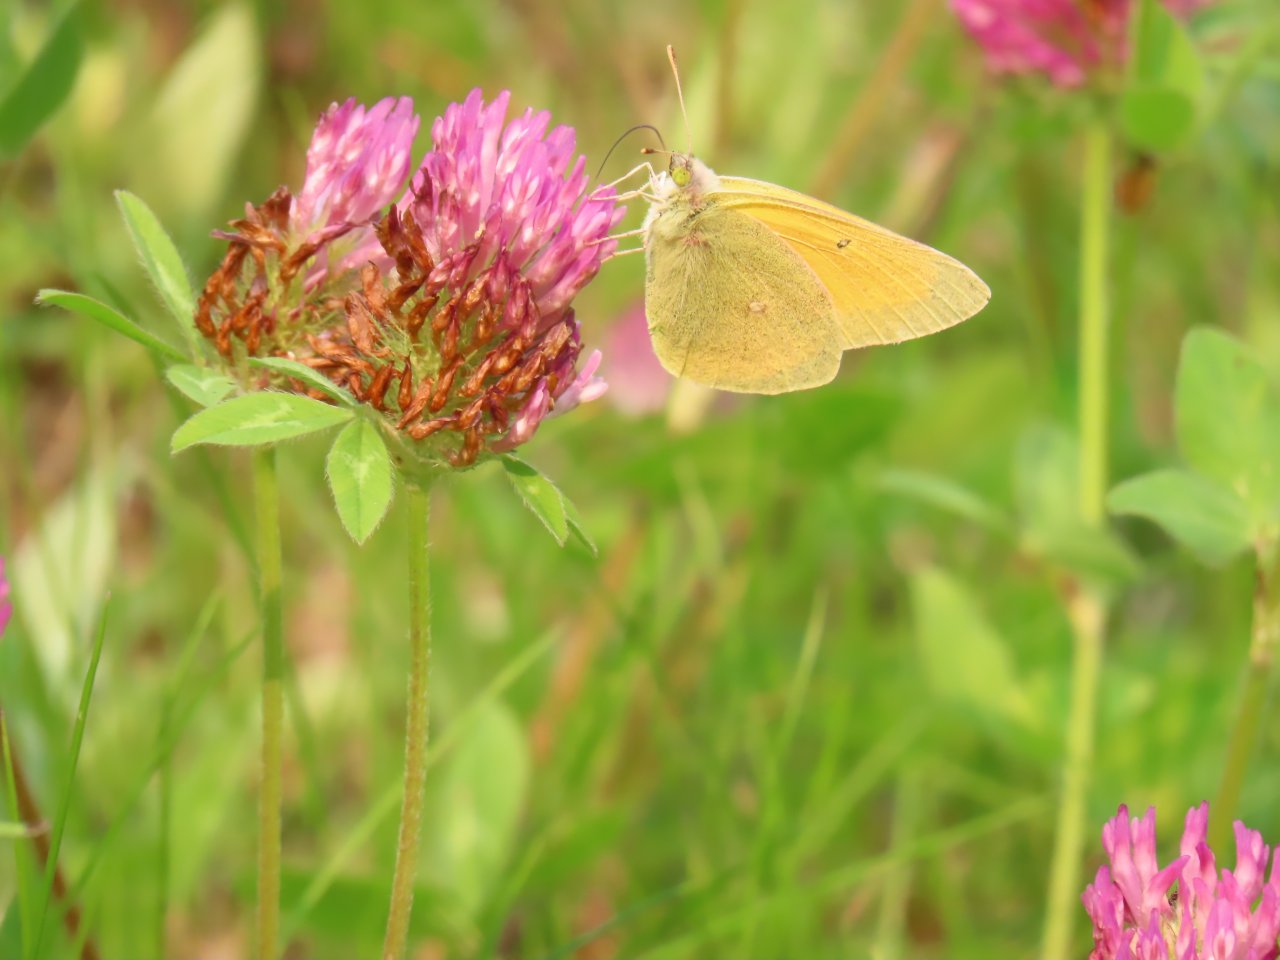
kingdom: Animalia
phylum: Arthropoda
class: Insecta
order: Lepidoptera
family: Pieridae
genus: Colias
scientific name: Colias christina
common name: Christina Sulphur
